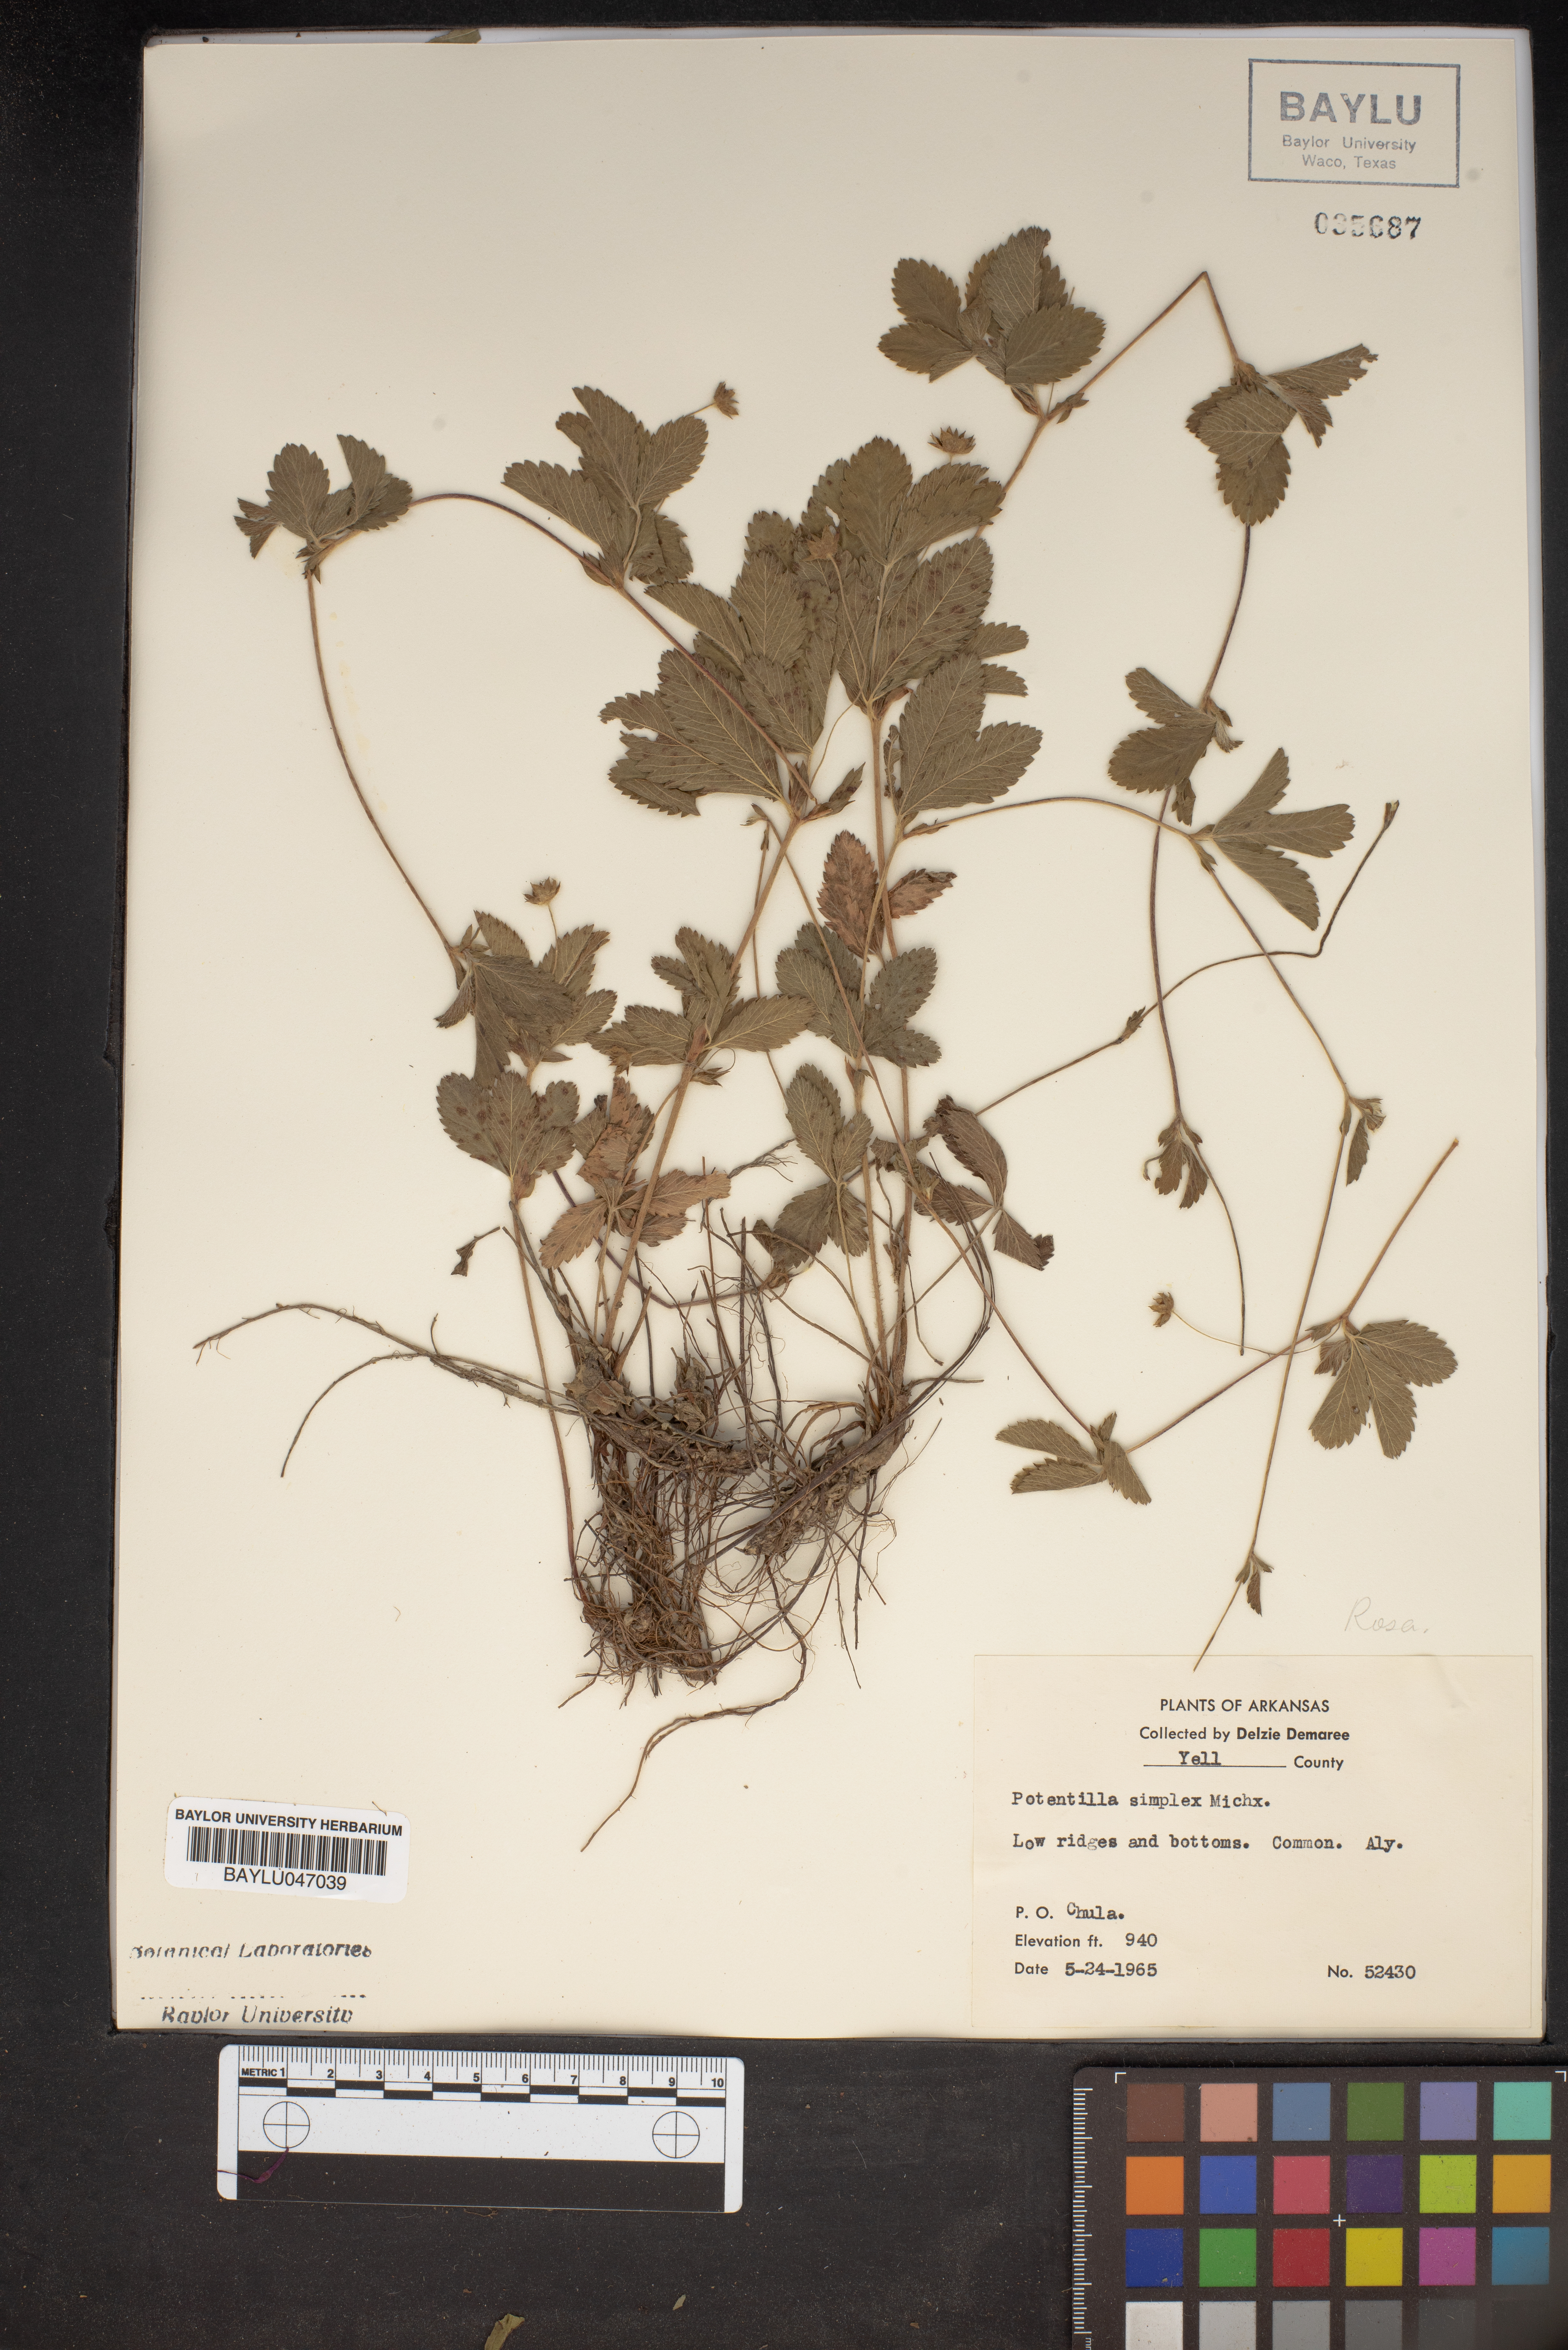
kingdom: Plantae
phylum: Tracheophyta
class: Magnoliopsida
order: Rosales
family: Rosaceae
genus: Potentilla
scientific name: Potentilla simplex
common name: Old field cinquefoil
